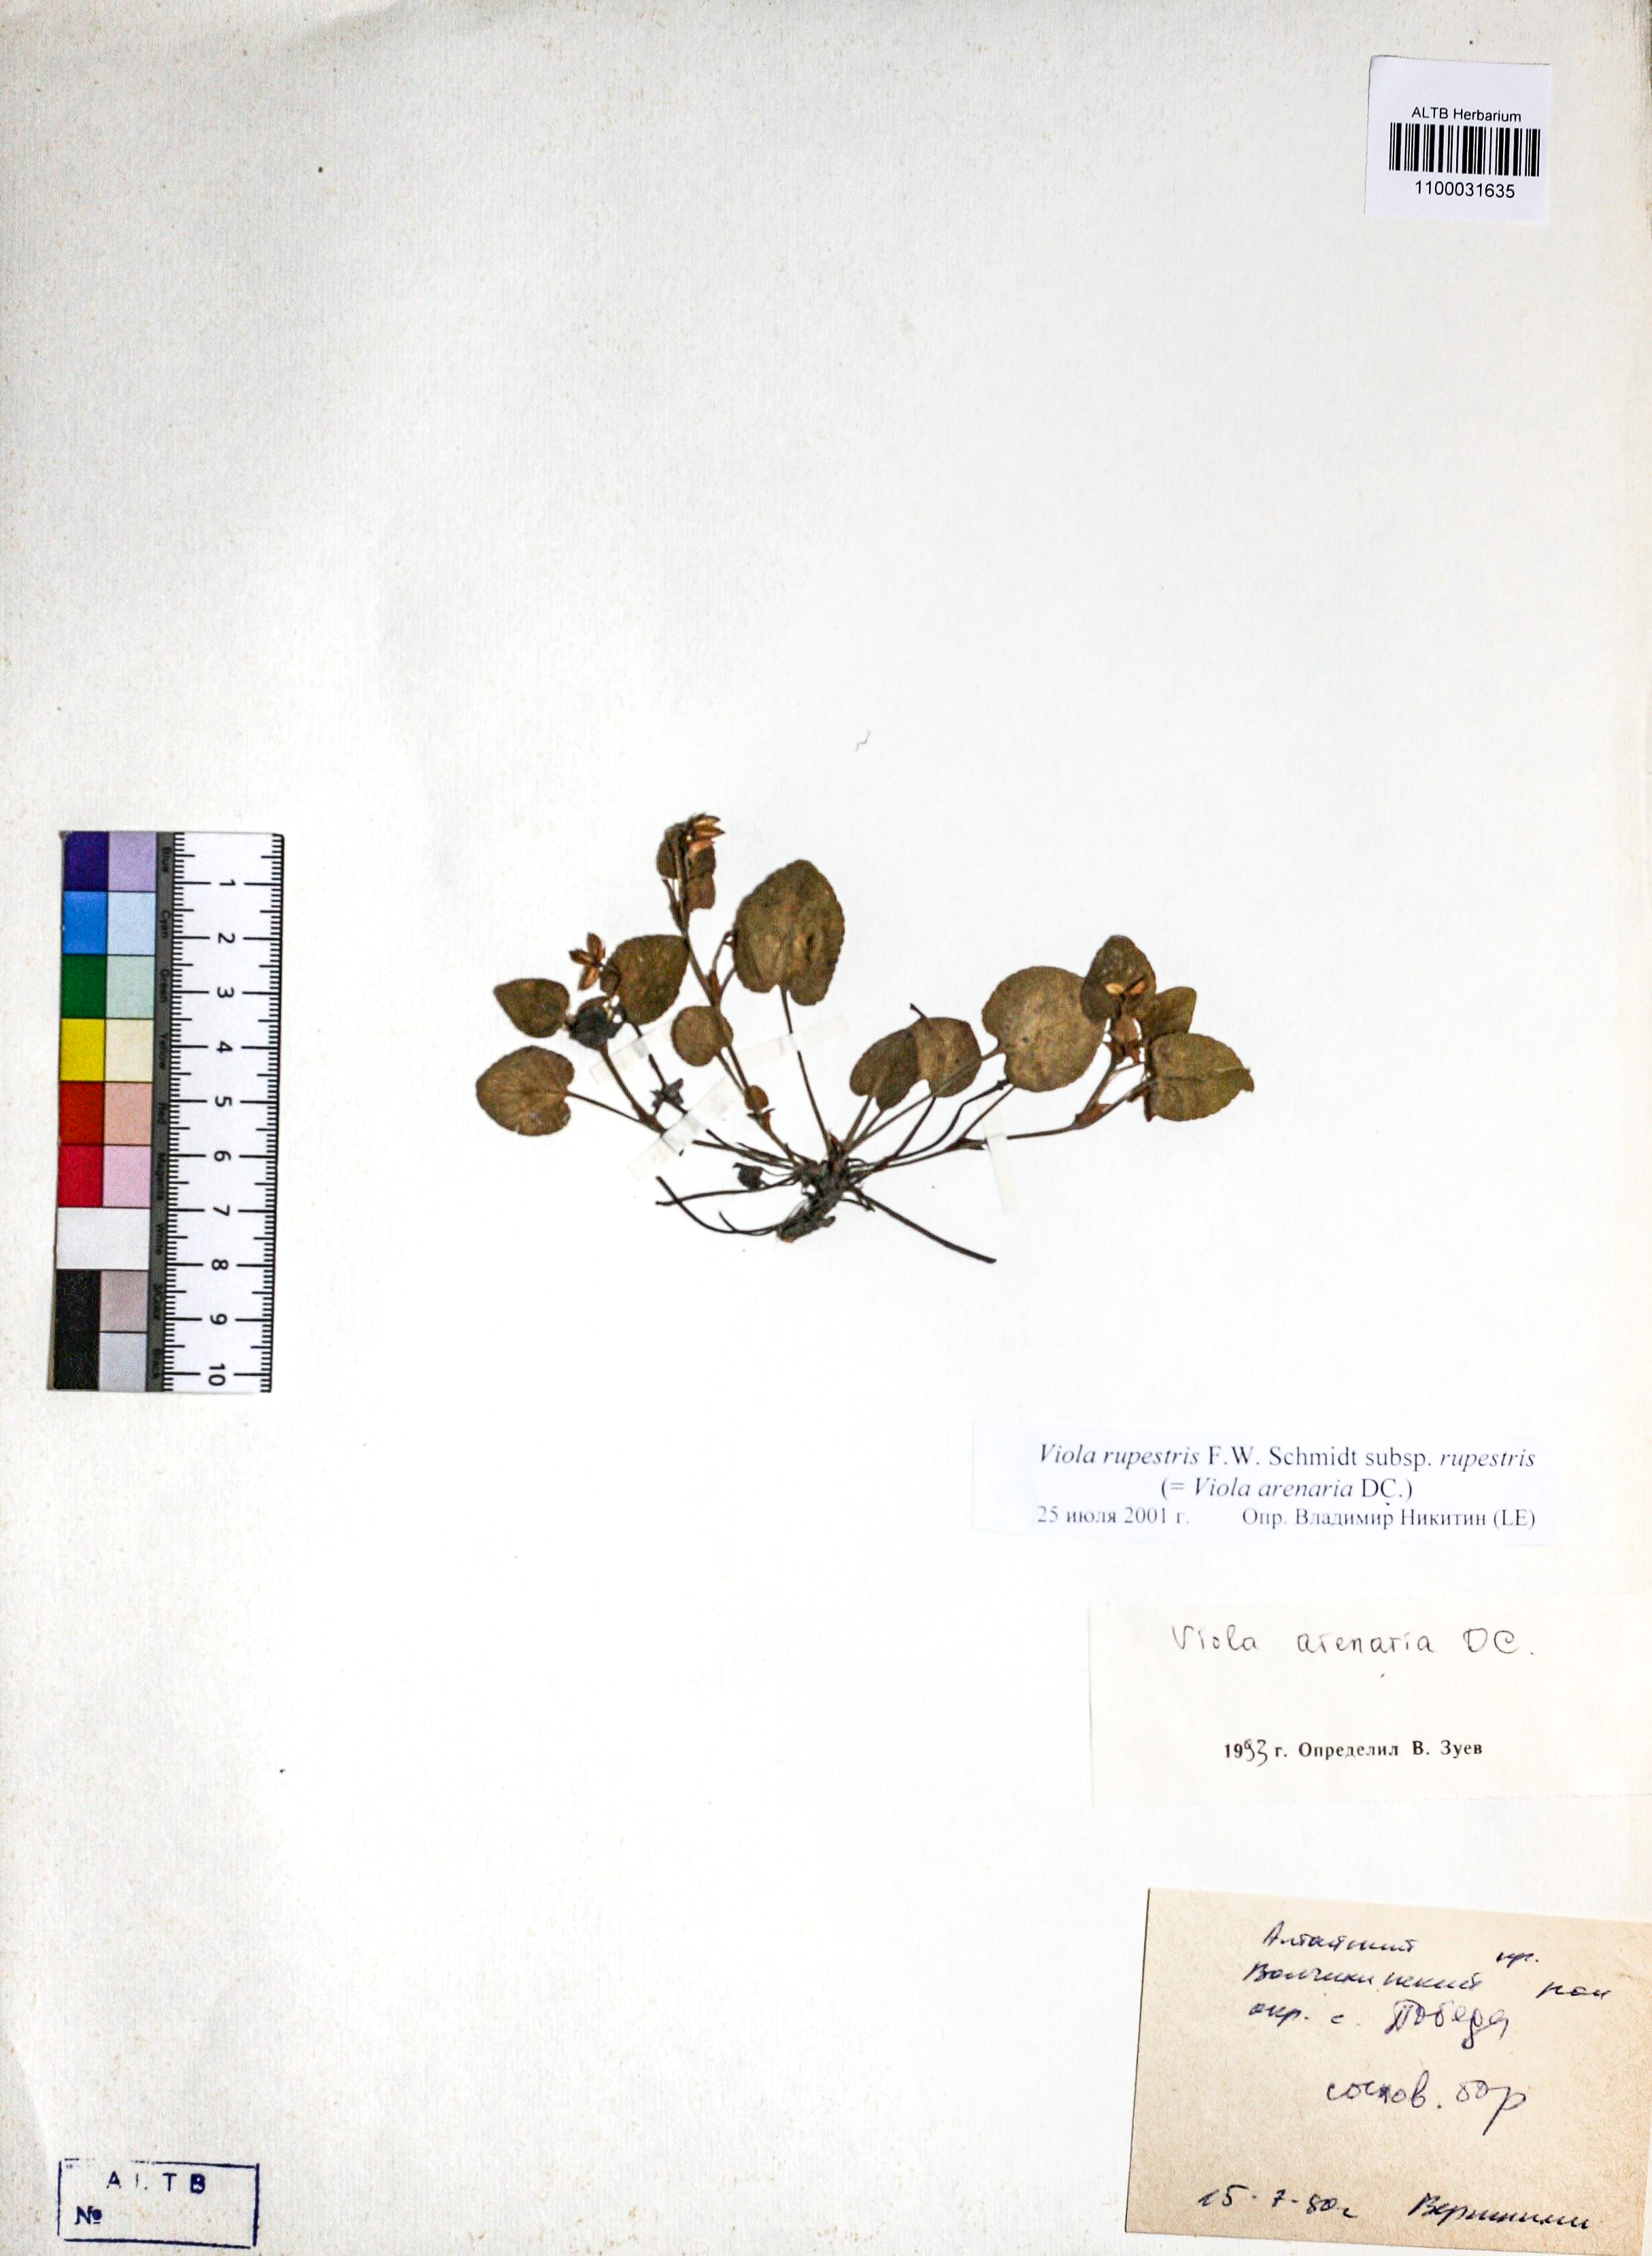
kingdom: Plantae
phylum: Tracheophyta
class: Magnoliopsida
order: Malpighiales
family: Violaceae
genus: Viola
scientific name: Viola rupestris
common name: Teesdale violet
